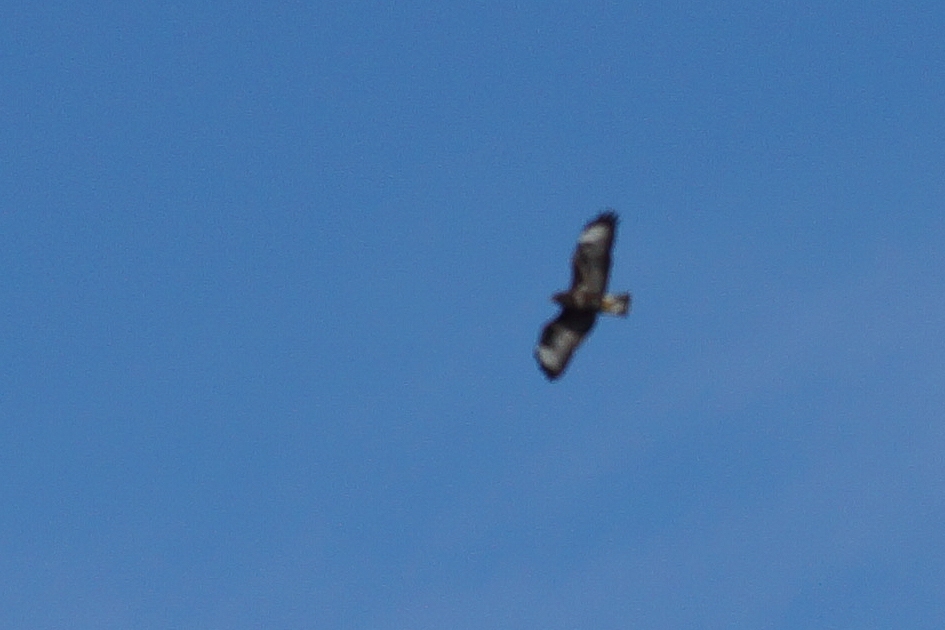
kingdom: Animalia
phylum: Chordata
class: Aves
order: Accipitriformes
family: Accipitridae
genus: Buteo
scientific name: Buteo buteo
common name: Musvåge
